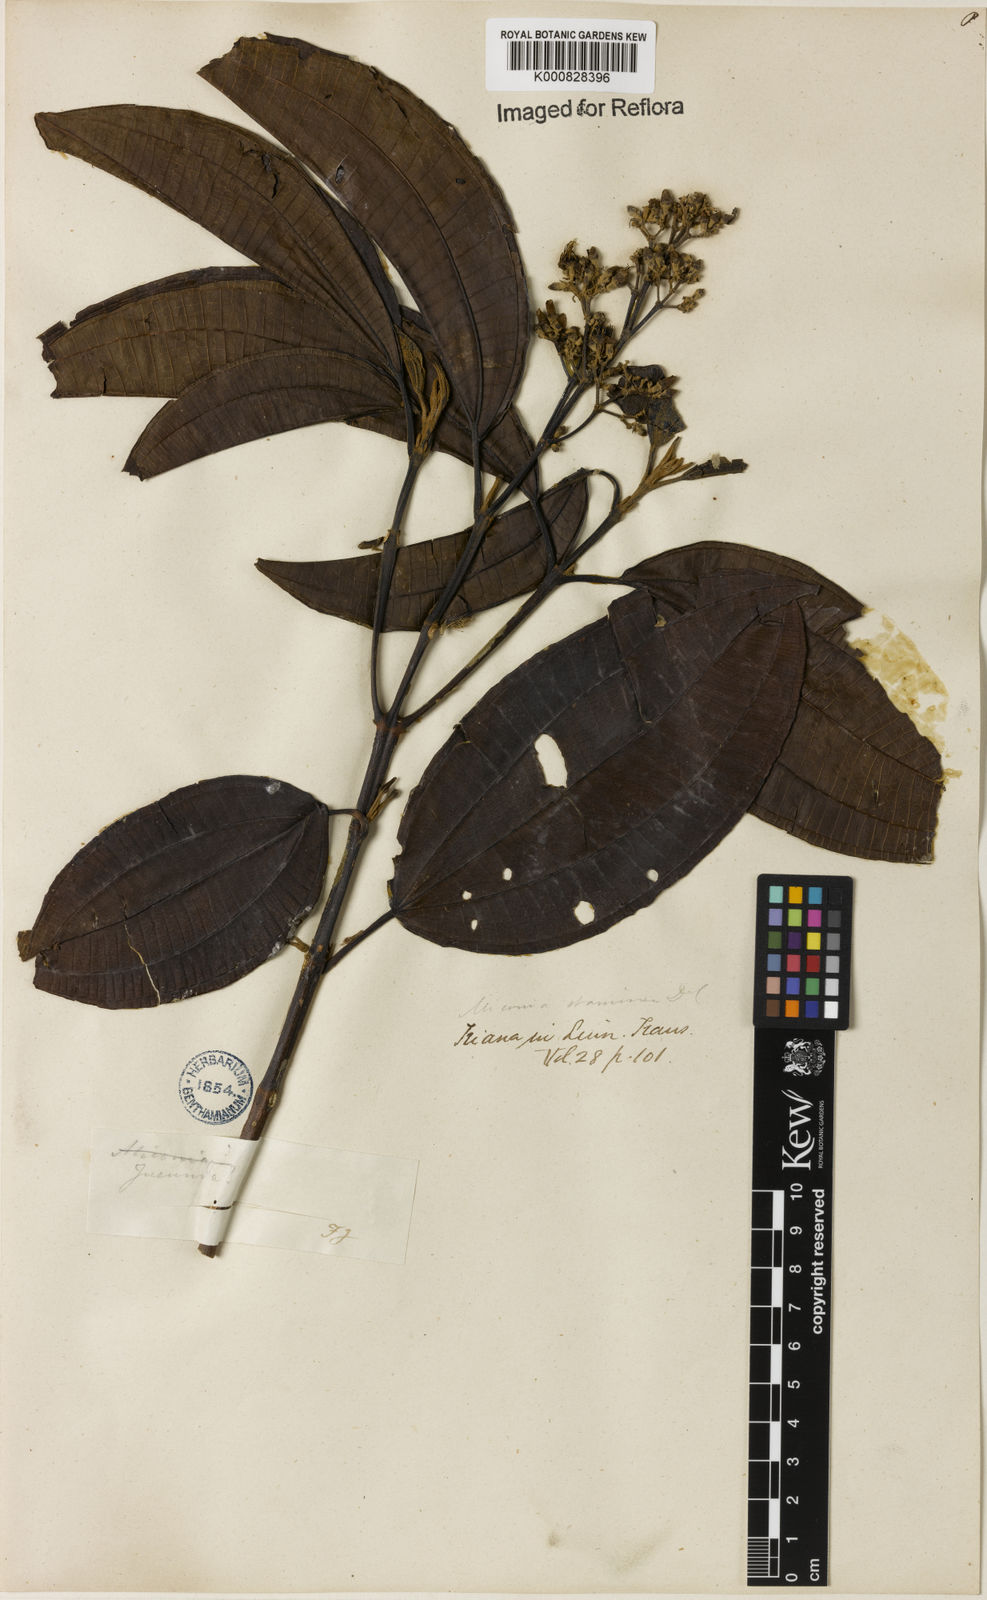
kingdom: Plantae
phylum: Tracheophyta
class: Magnoliopsida
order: Myrtales
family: Melastomataceae
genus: Miconia
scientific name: Miconia staminea
